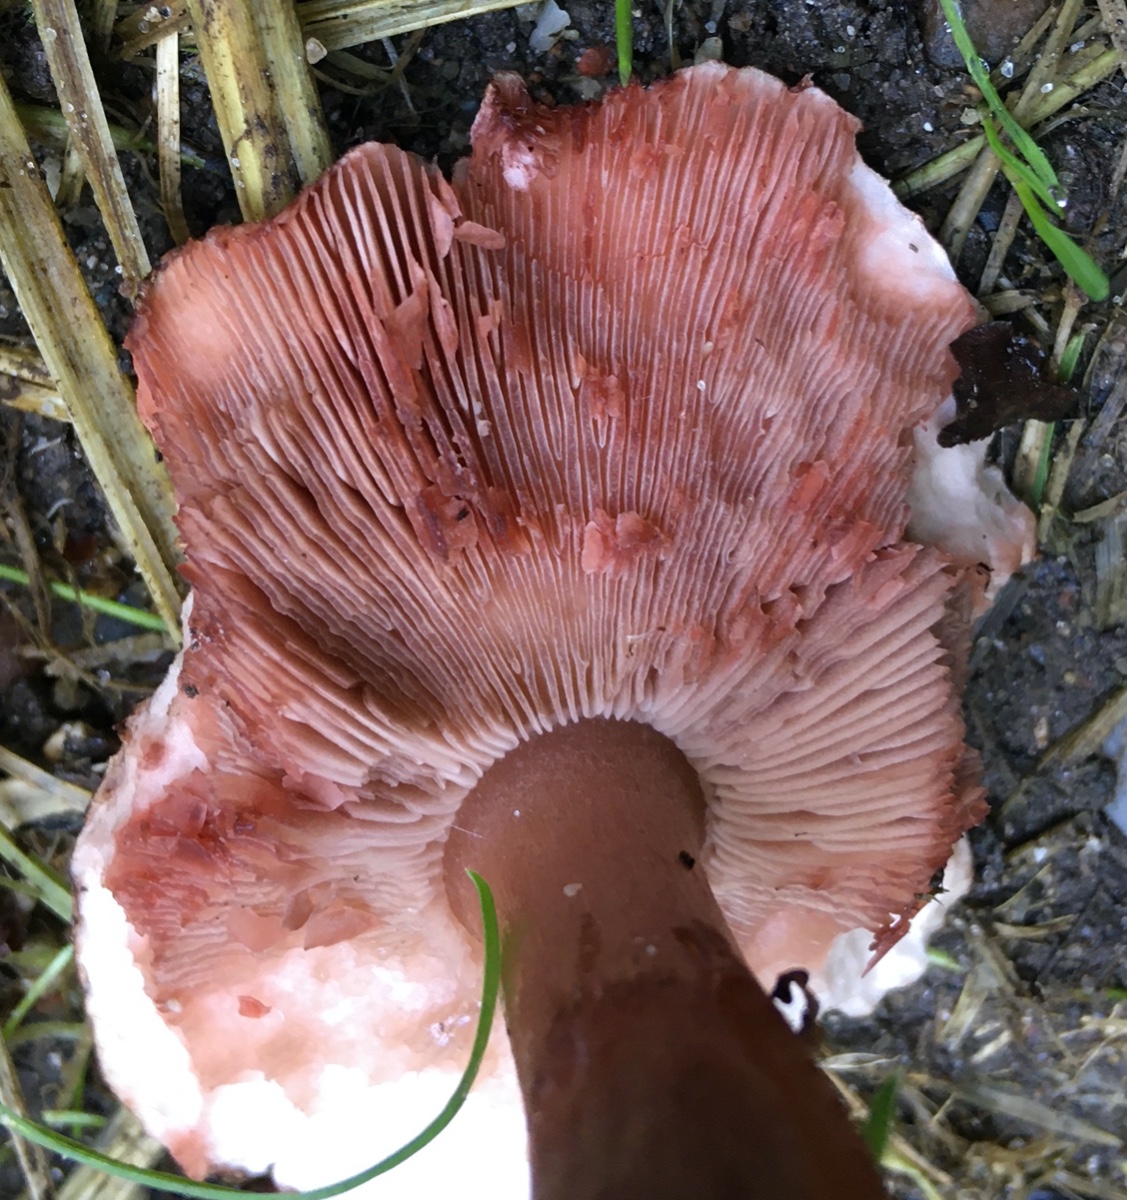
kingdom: Fungi
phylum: Basidiomycota
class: Agaricomycetes
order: Agaricales
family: Agaricaceae
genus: Agaricus
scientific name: Agaricus langei
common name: stor blod-champignon
